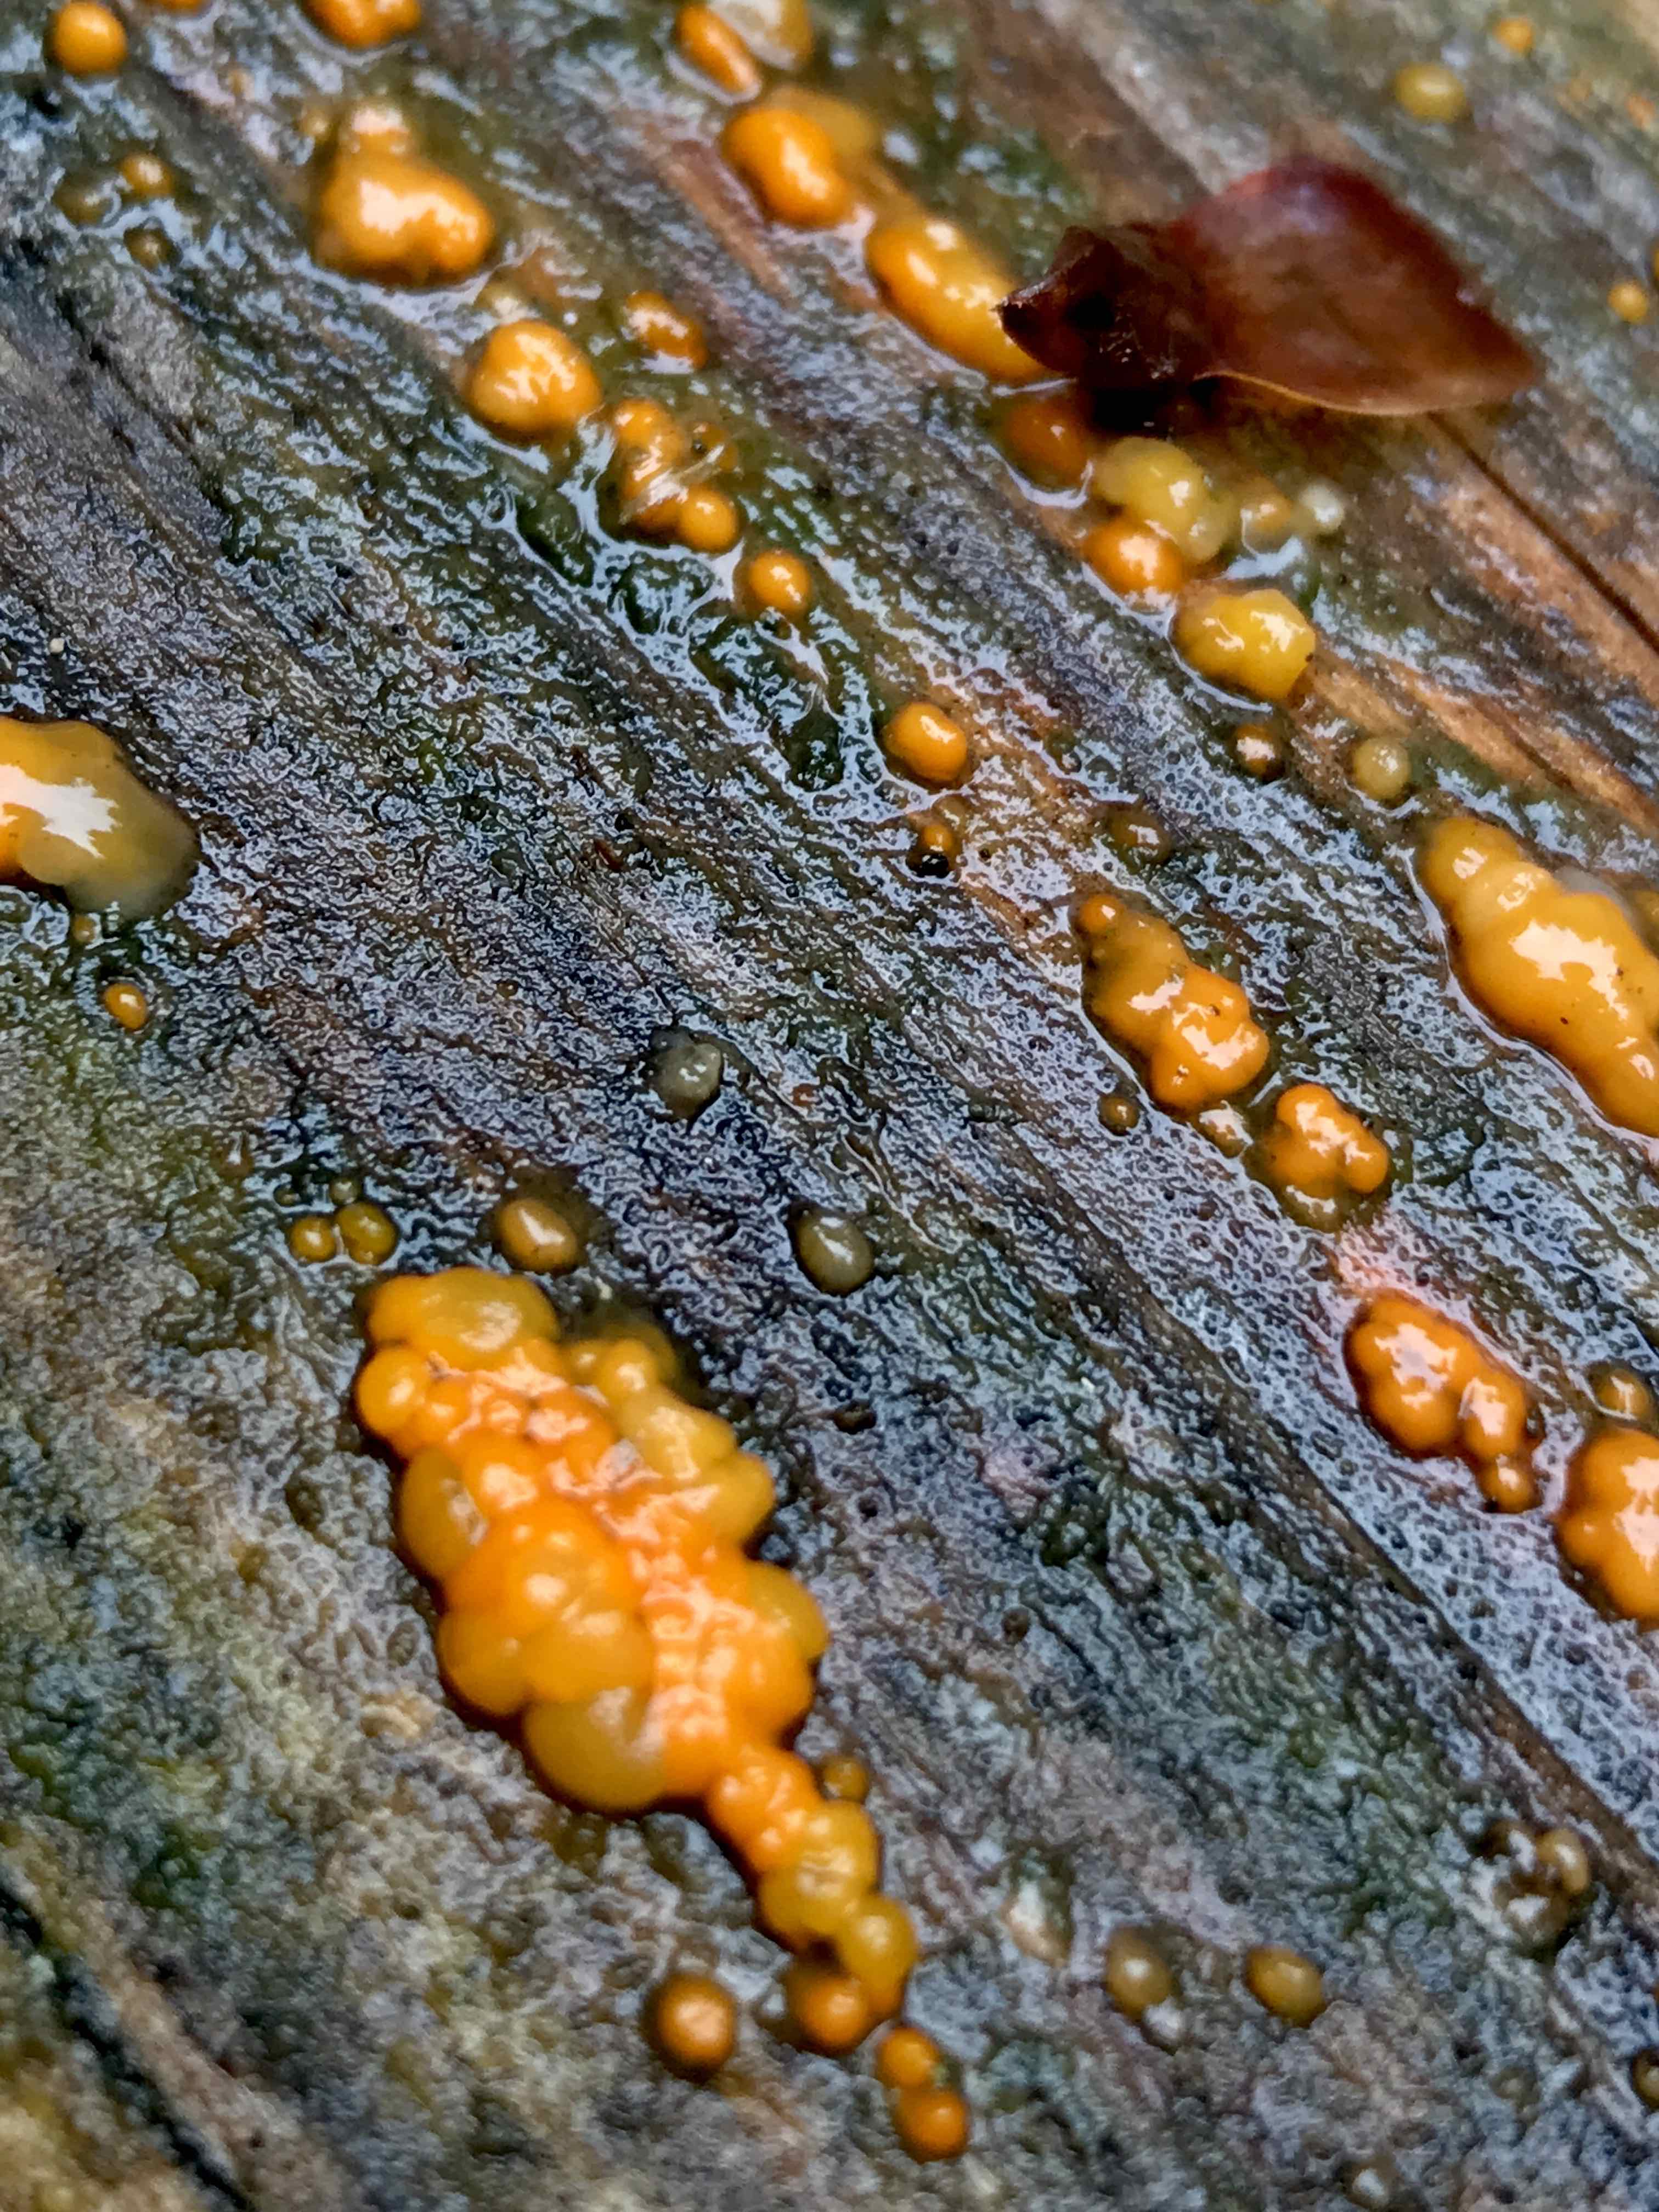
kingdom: Fungi
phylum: Basidiomycota
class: Dacrymycetes
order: Dacrymycetales
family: Dacrymycetaceae
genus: Dacrymyces
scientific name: Dacrymyces stillatus
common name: almindelig tåresvamp
